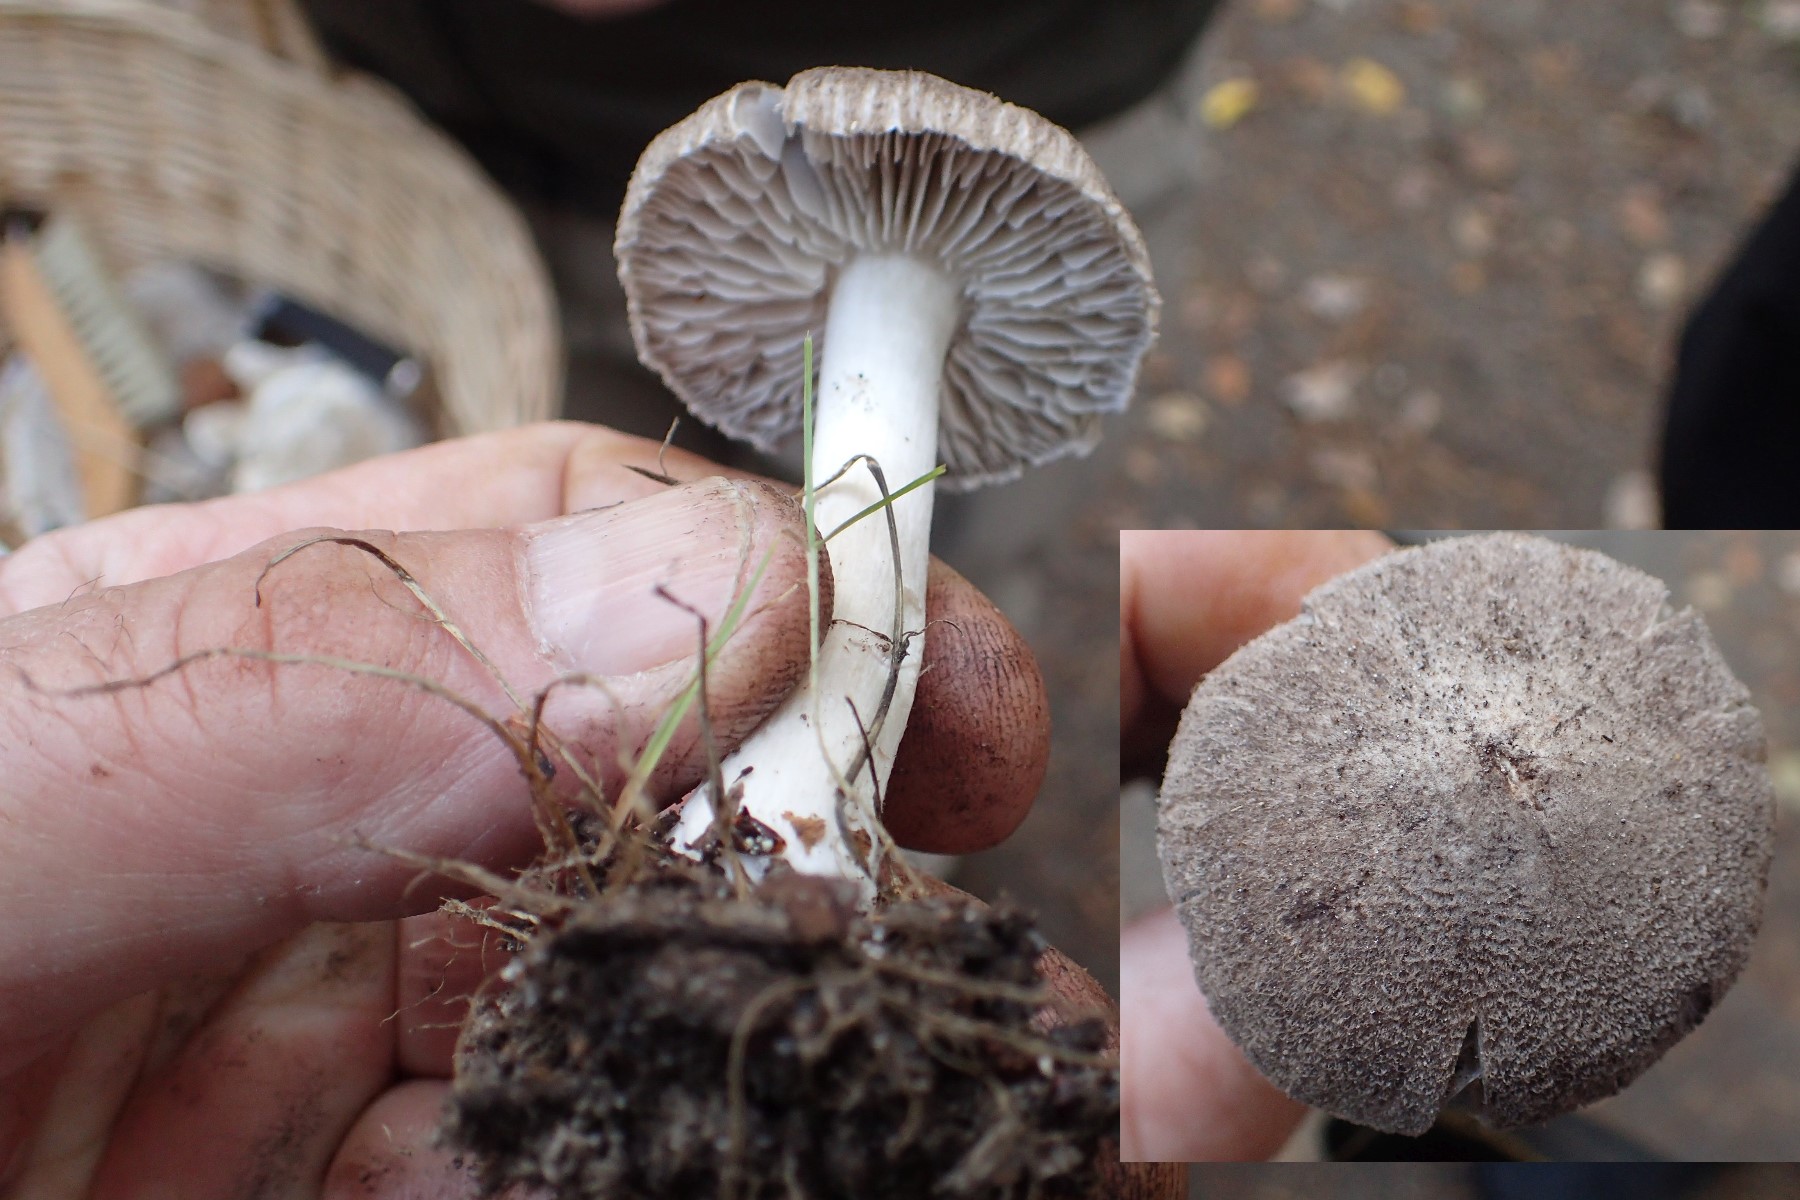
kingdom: Fungi
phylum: Basidiomycota
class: Agaricomycetes
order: Agaricales
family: Tricholomataceae
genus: Tricholoma
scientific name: Tricholoma
